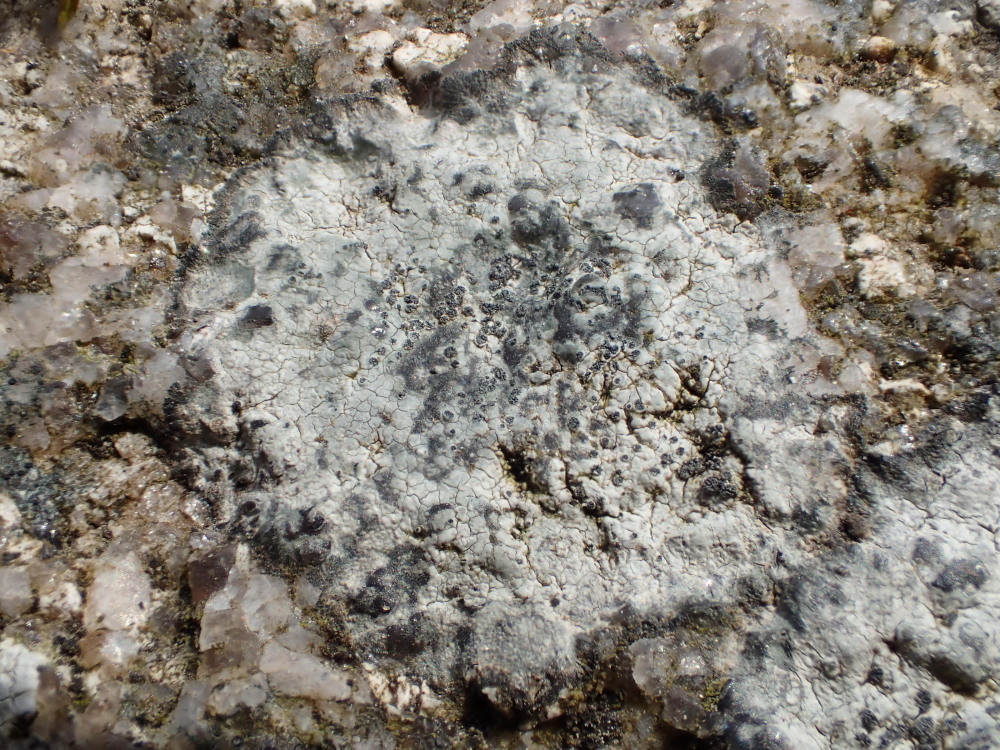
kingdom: Fungi
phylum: Ascomycota
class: Lecanoromycetes
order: Lecideales
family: Lecideaceae
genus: Porpidia
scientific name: Porpidia tuberculosa
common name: broget bredskivelav
